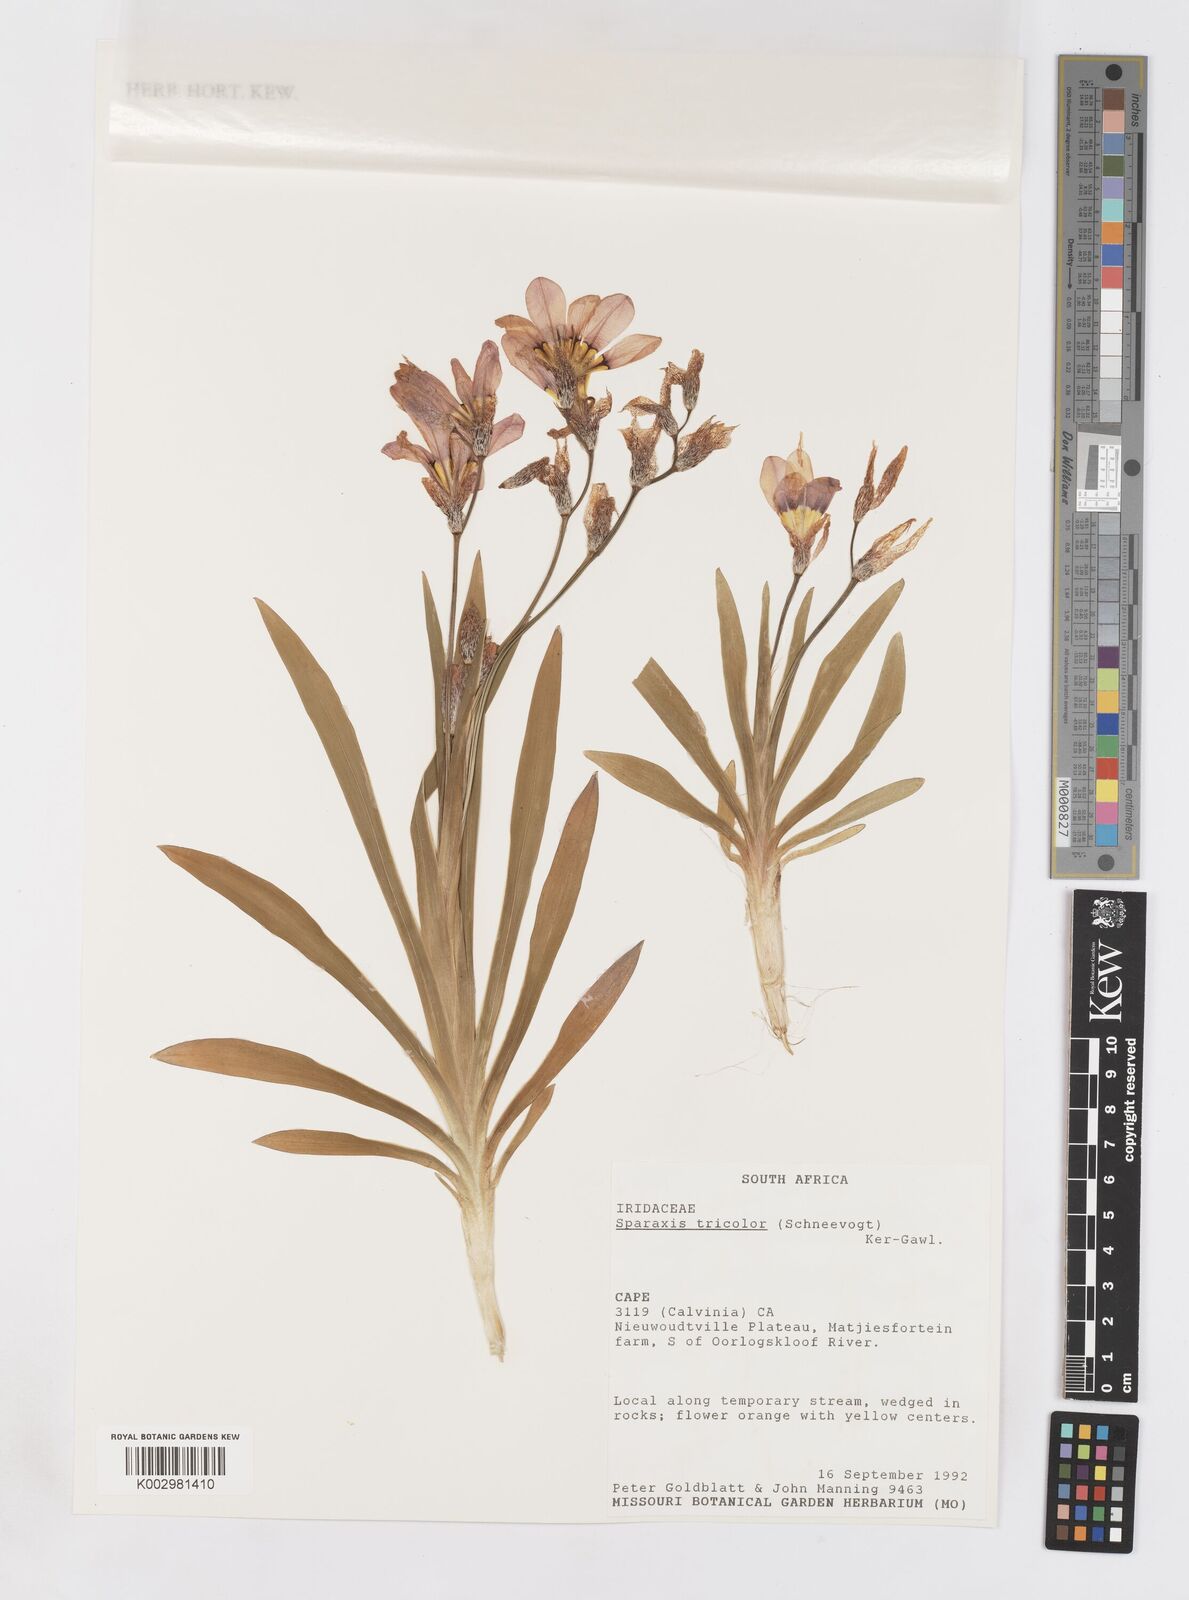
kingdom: Plantae
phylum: Tracheophyta
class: Liliopsida
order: Asparagales
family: Iridaceae
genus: Sparaxis
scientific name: Sparaxis tricolor
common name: Wandflower
